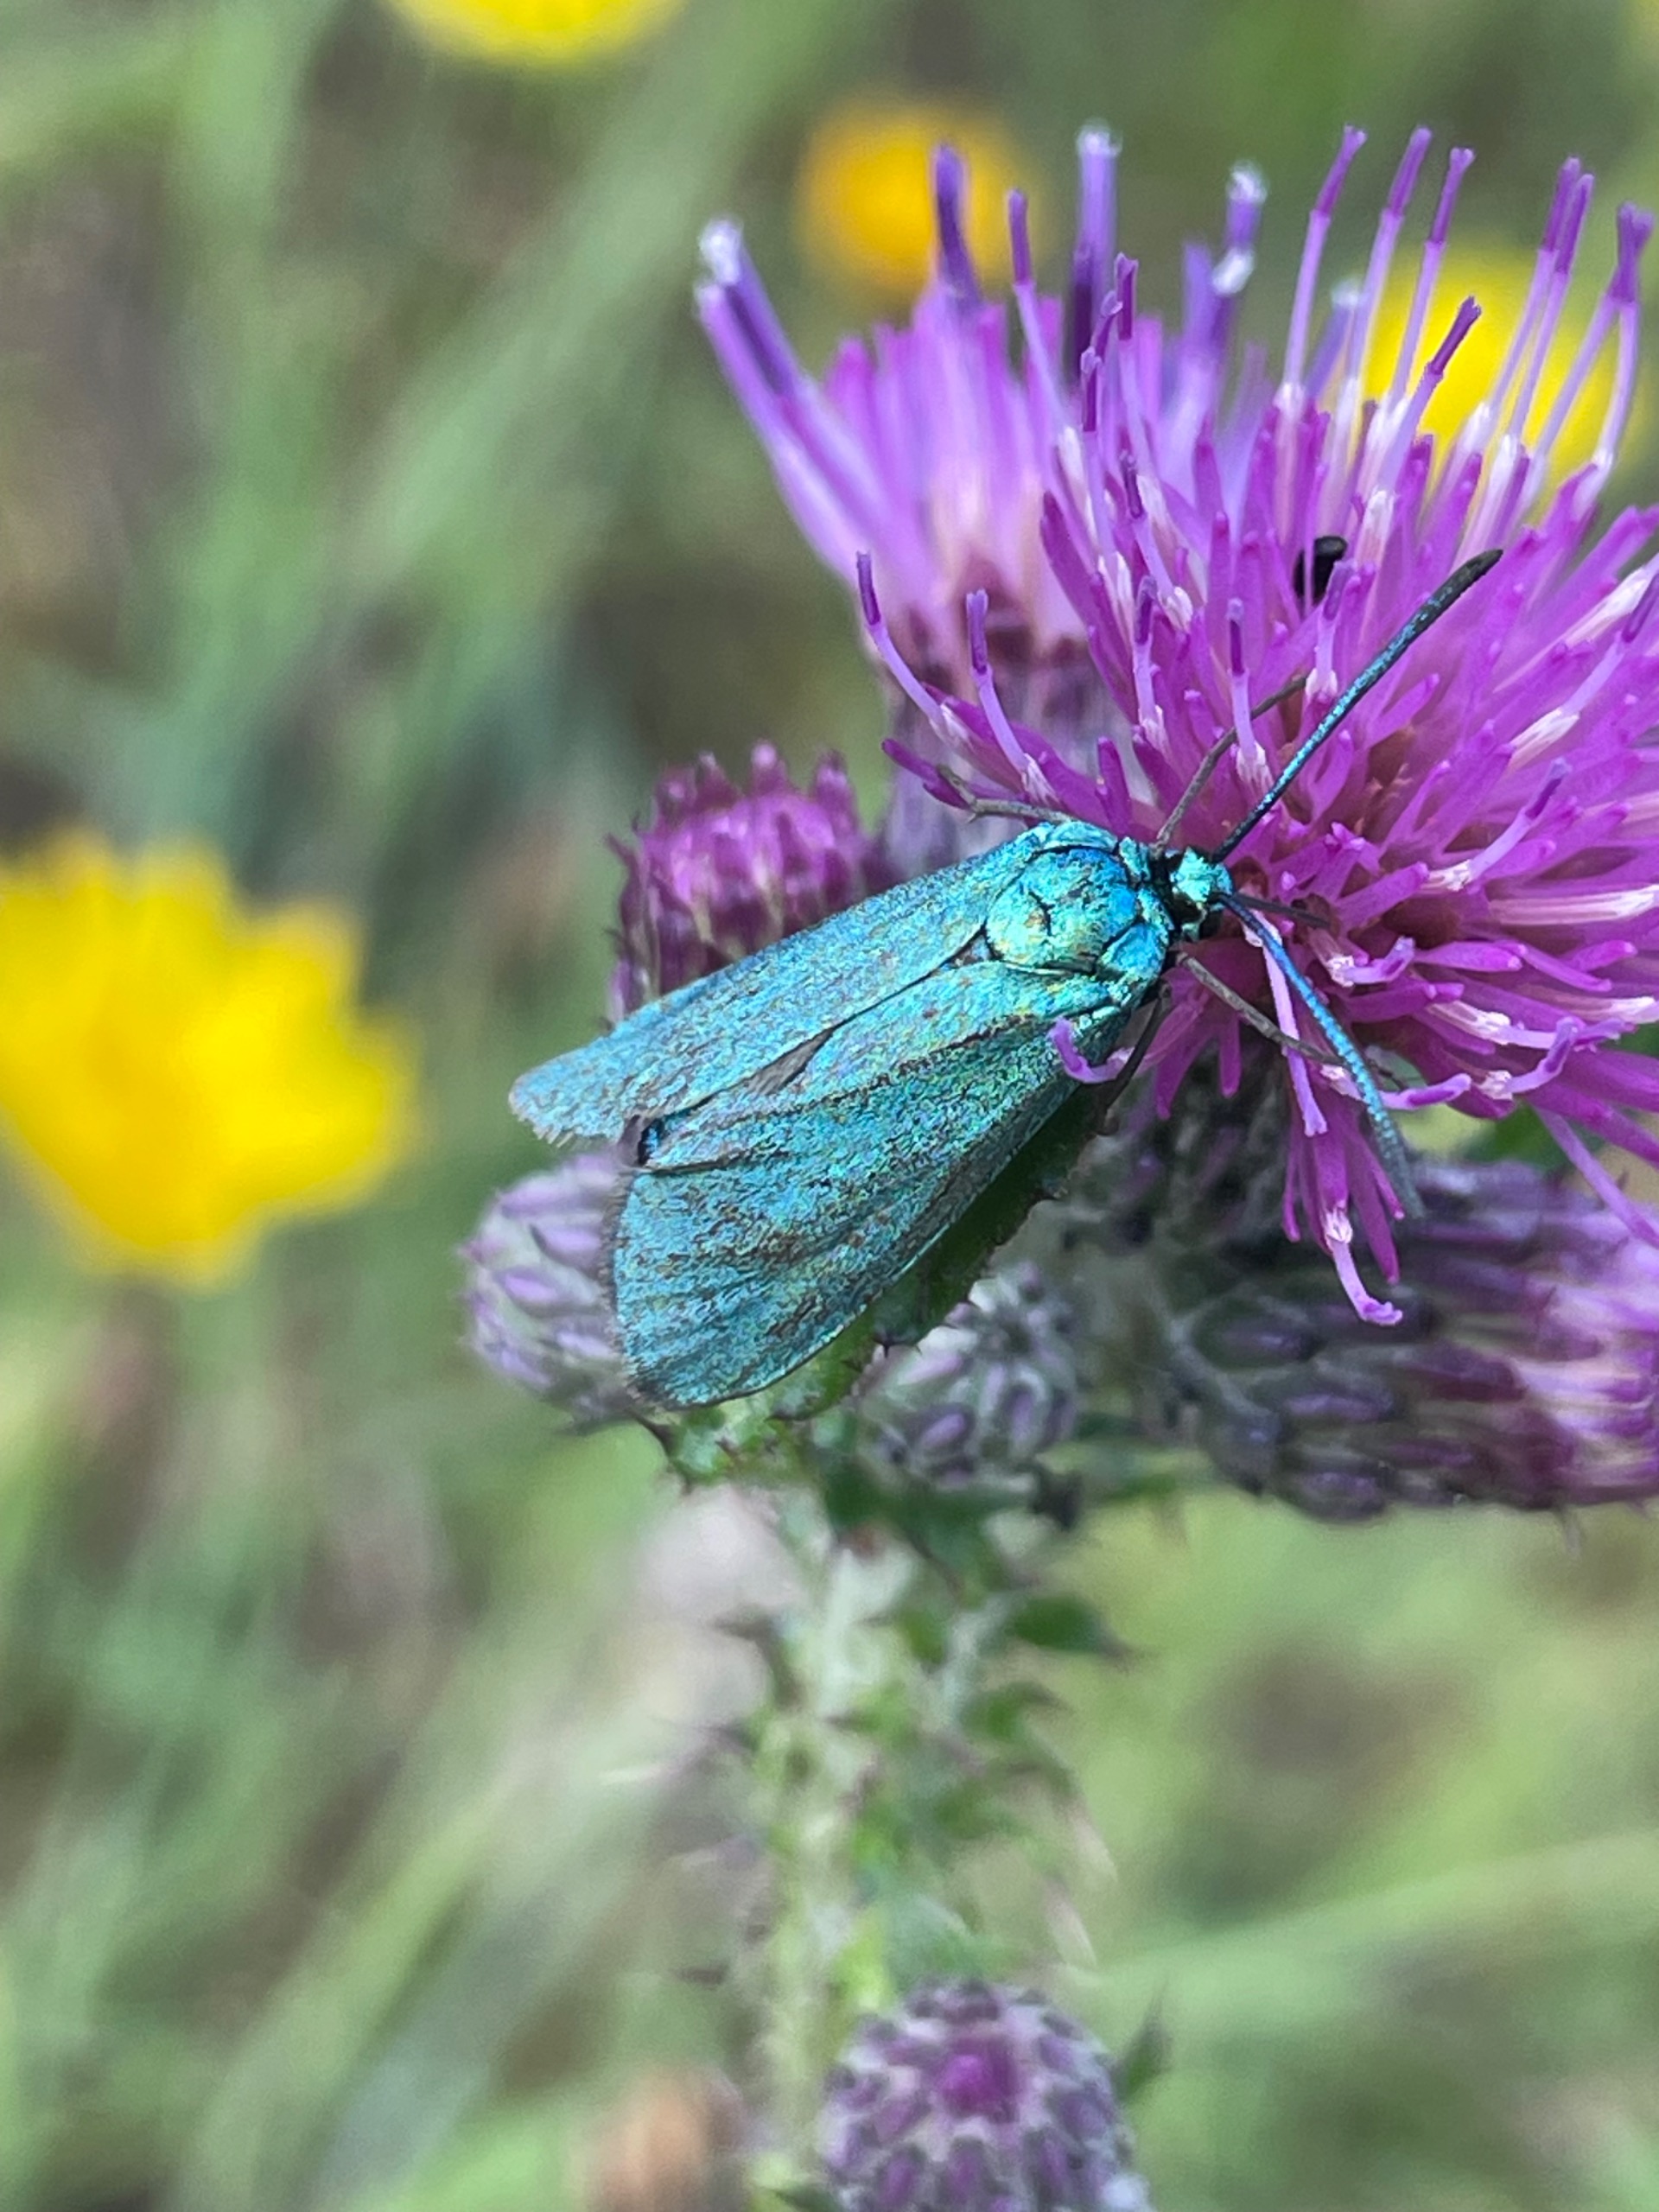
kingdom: Animalia
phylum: Arthropoda
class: Insecta
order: Lepidoptera
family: Zygaenidae
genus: Adscita
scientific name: Adscita statices
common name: Metalvinge
